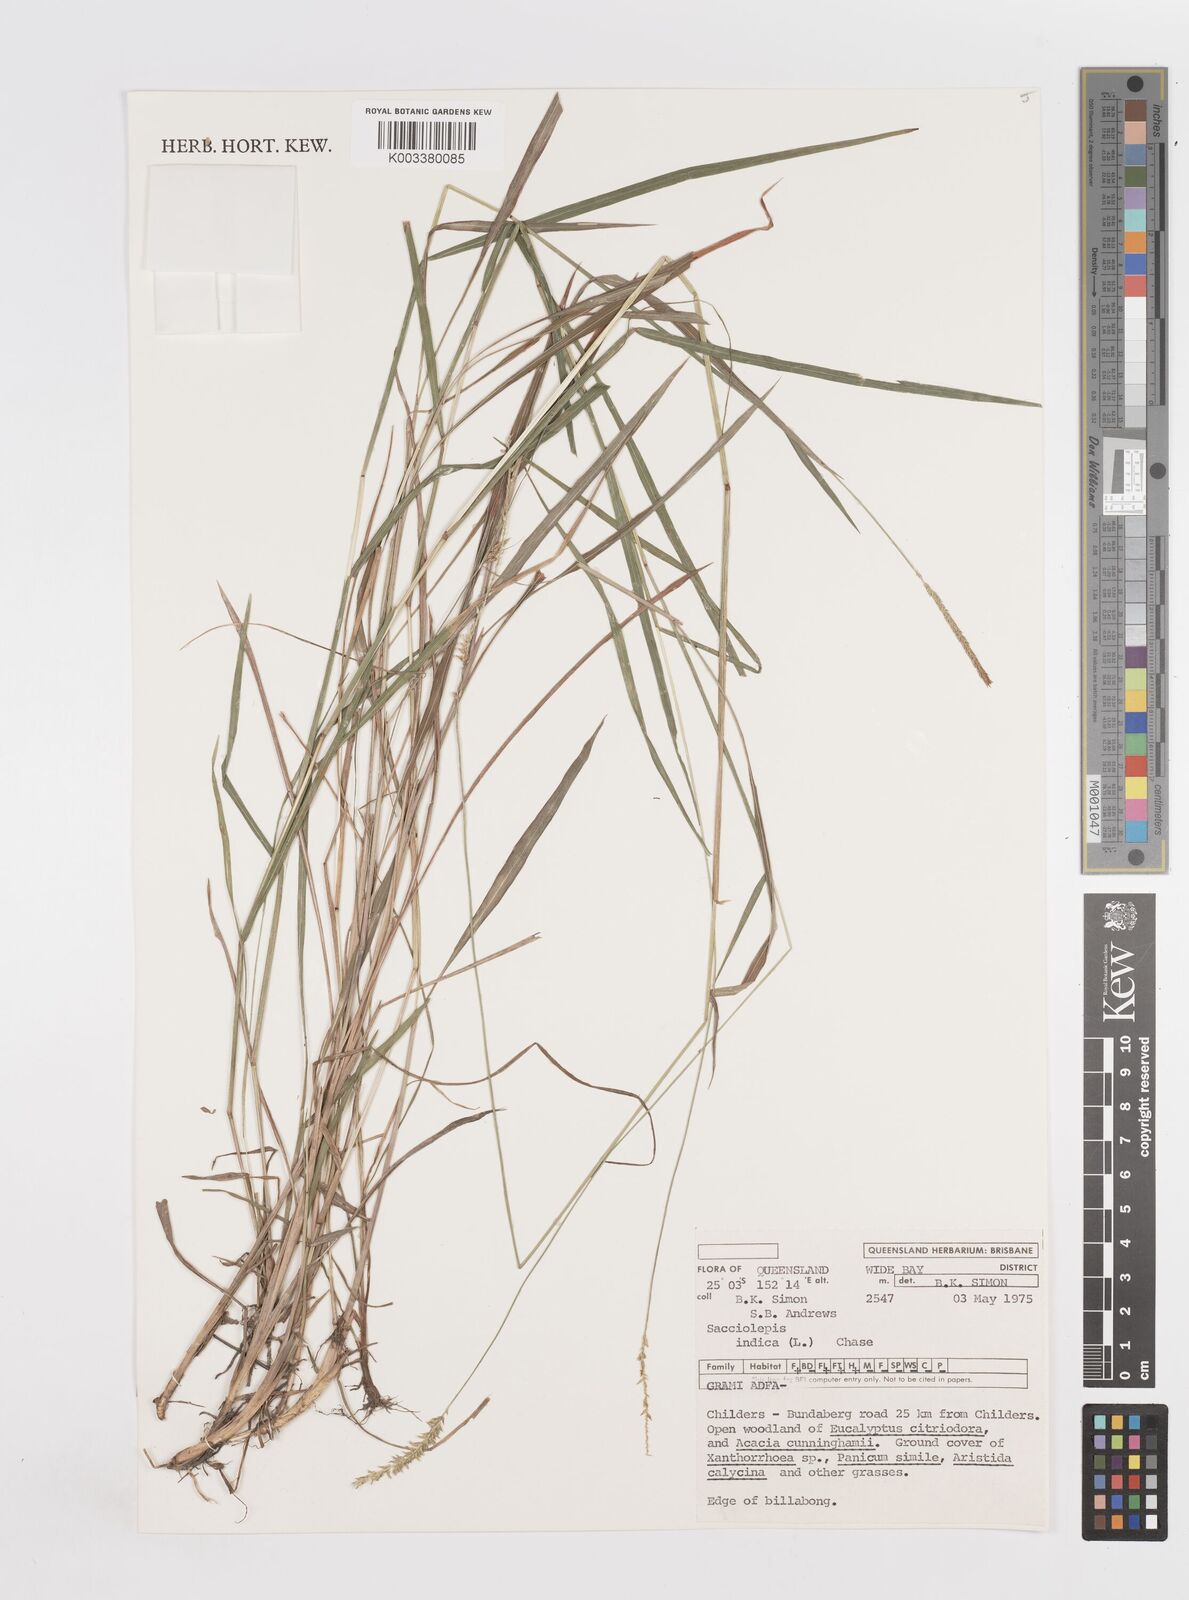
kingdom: Plantae
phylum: Tracheophyta
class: Liliopsida
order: Poales
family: Poaceae
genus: Sacciolepis
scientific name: Sacciolepis indica
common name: Glenwoodgrass
